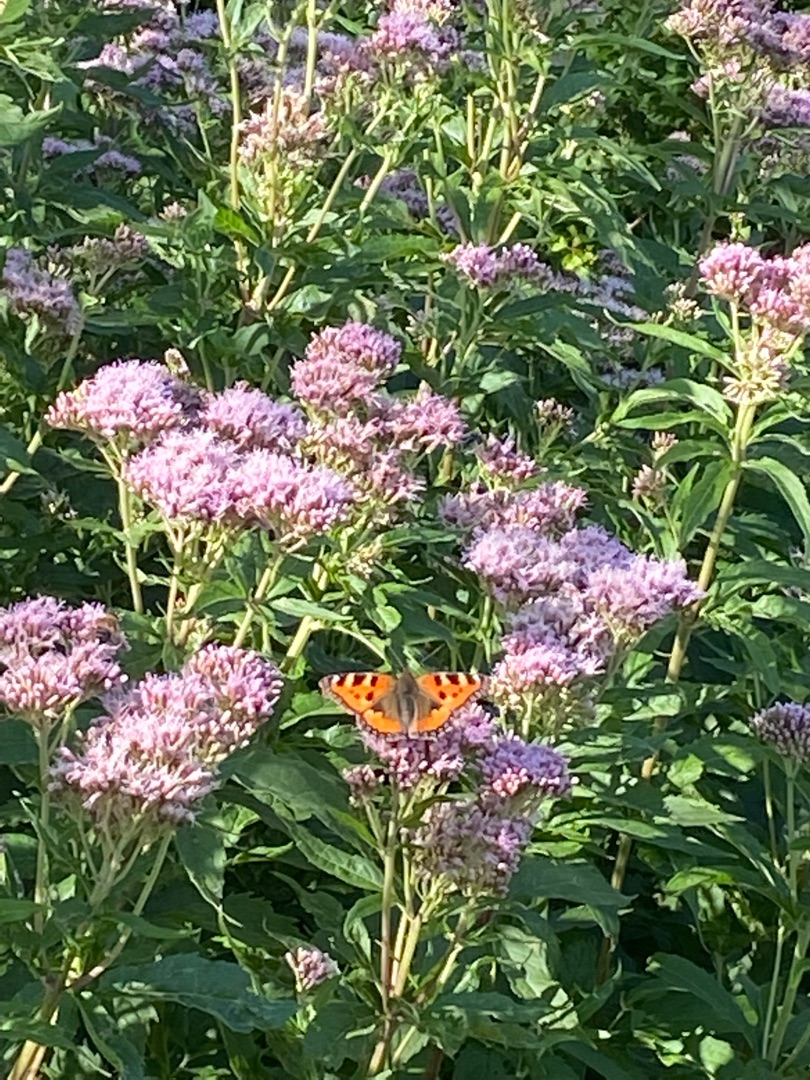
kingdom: Animalia
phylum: Arthropoda
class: Insecta
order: Lepidoptera
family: Nymphalidae
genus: Aglais
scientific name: Aglais urticae
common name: Nældens takvinge
